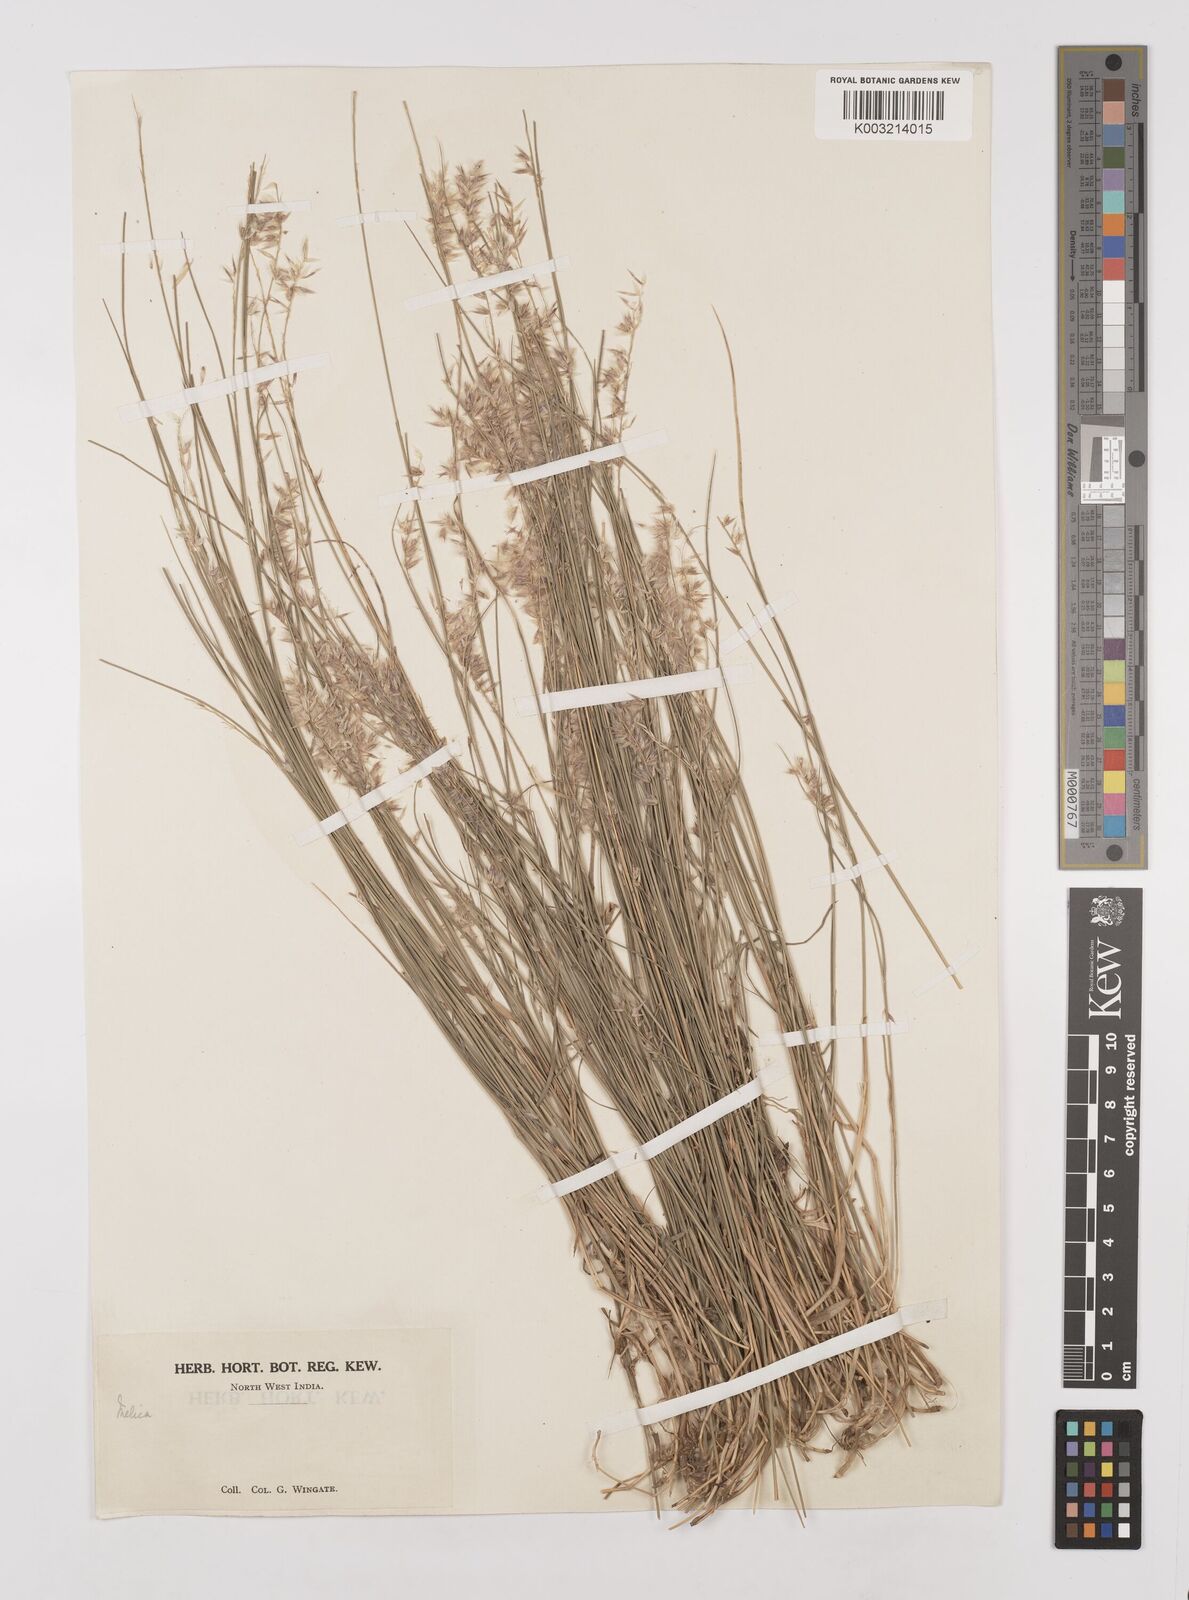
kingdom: Plantae
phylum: Tracheophyta
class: Liliopsida
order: Poales
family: Poaceae
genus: Melica
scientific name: Melica persica
